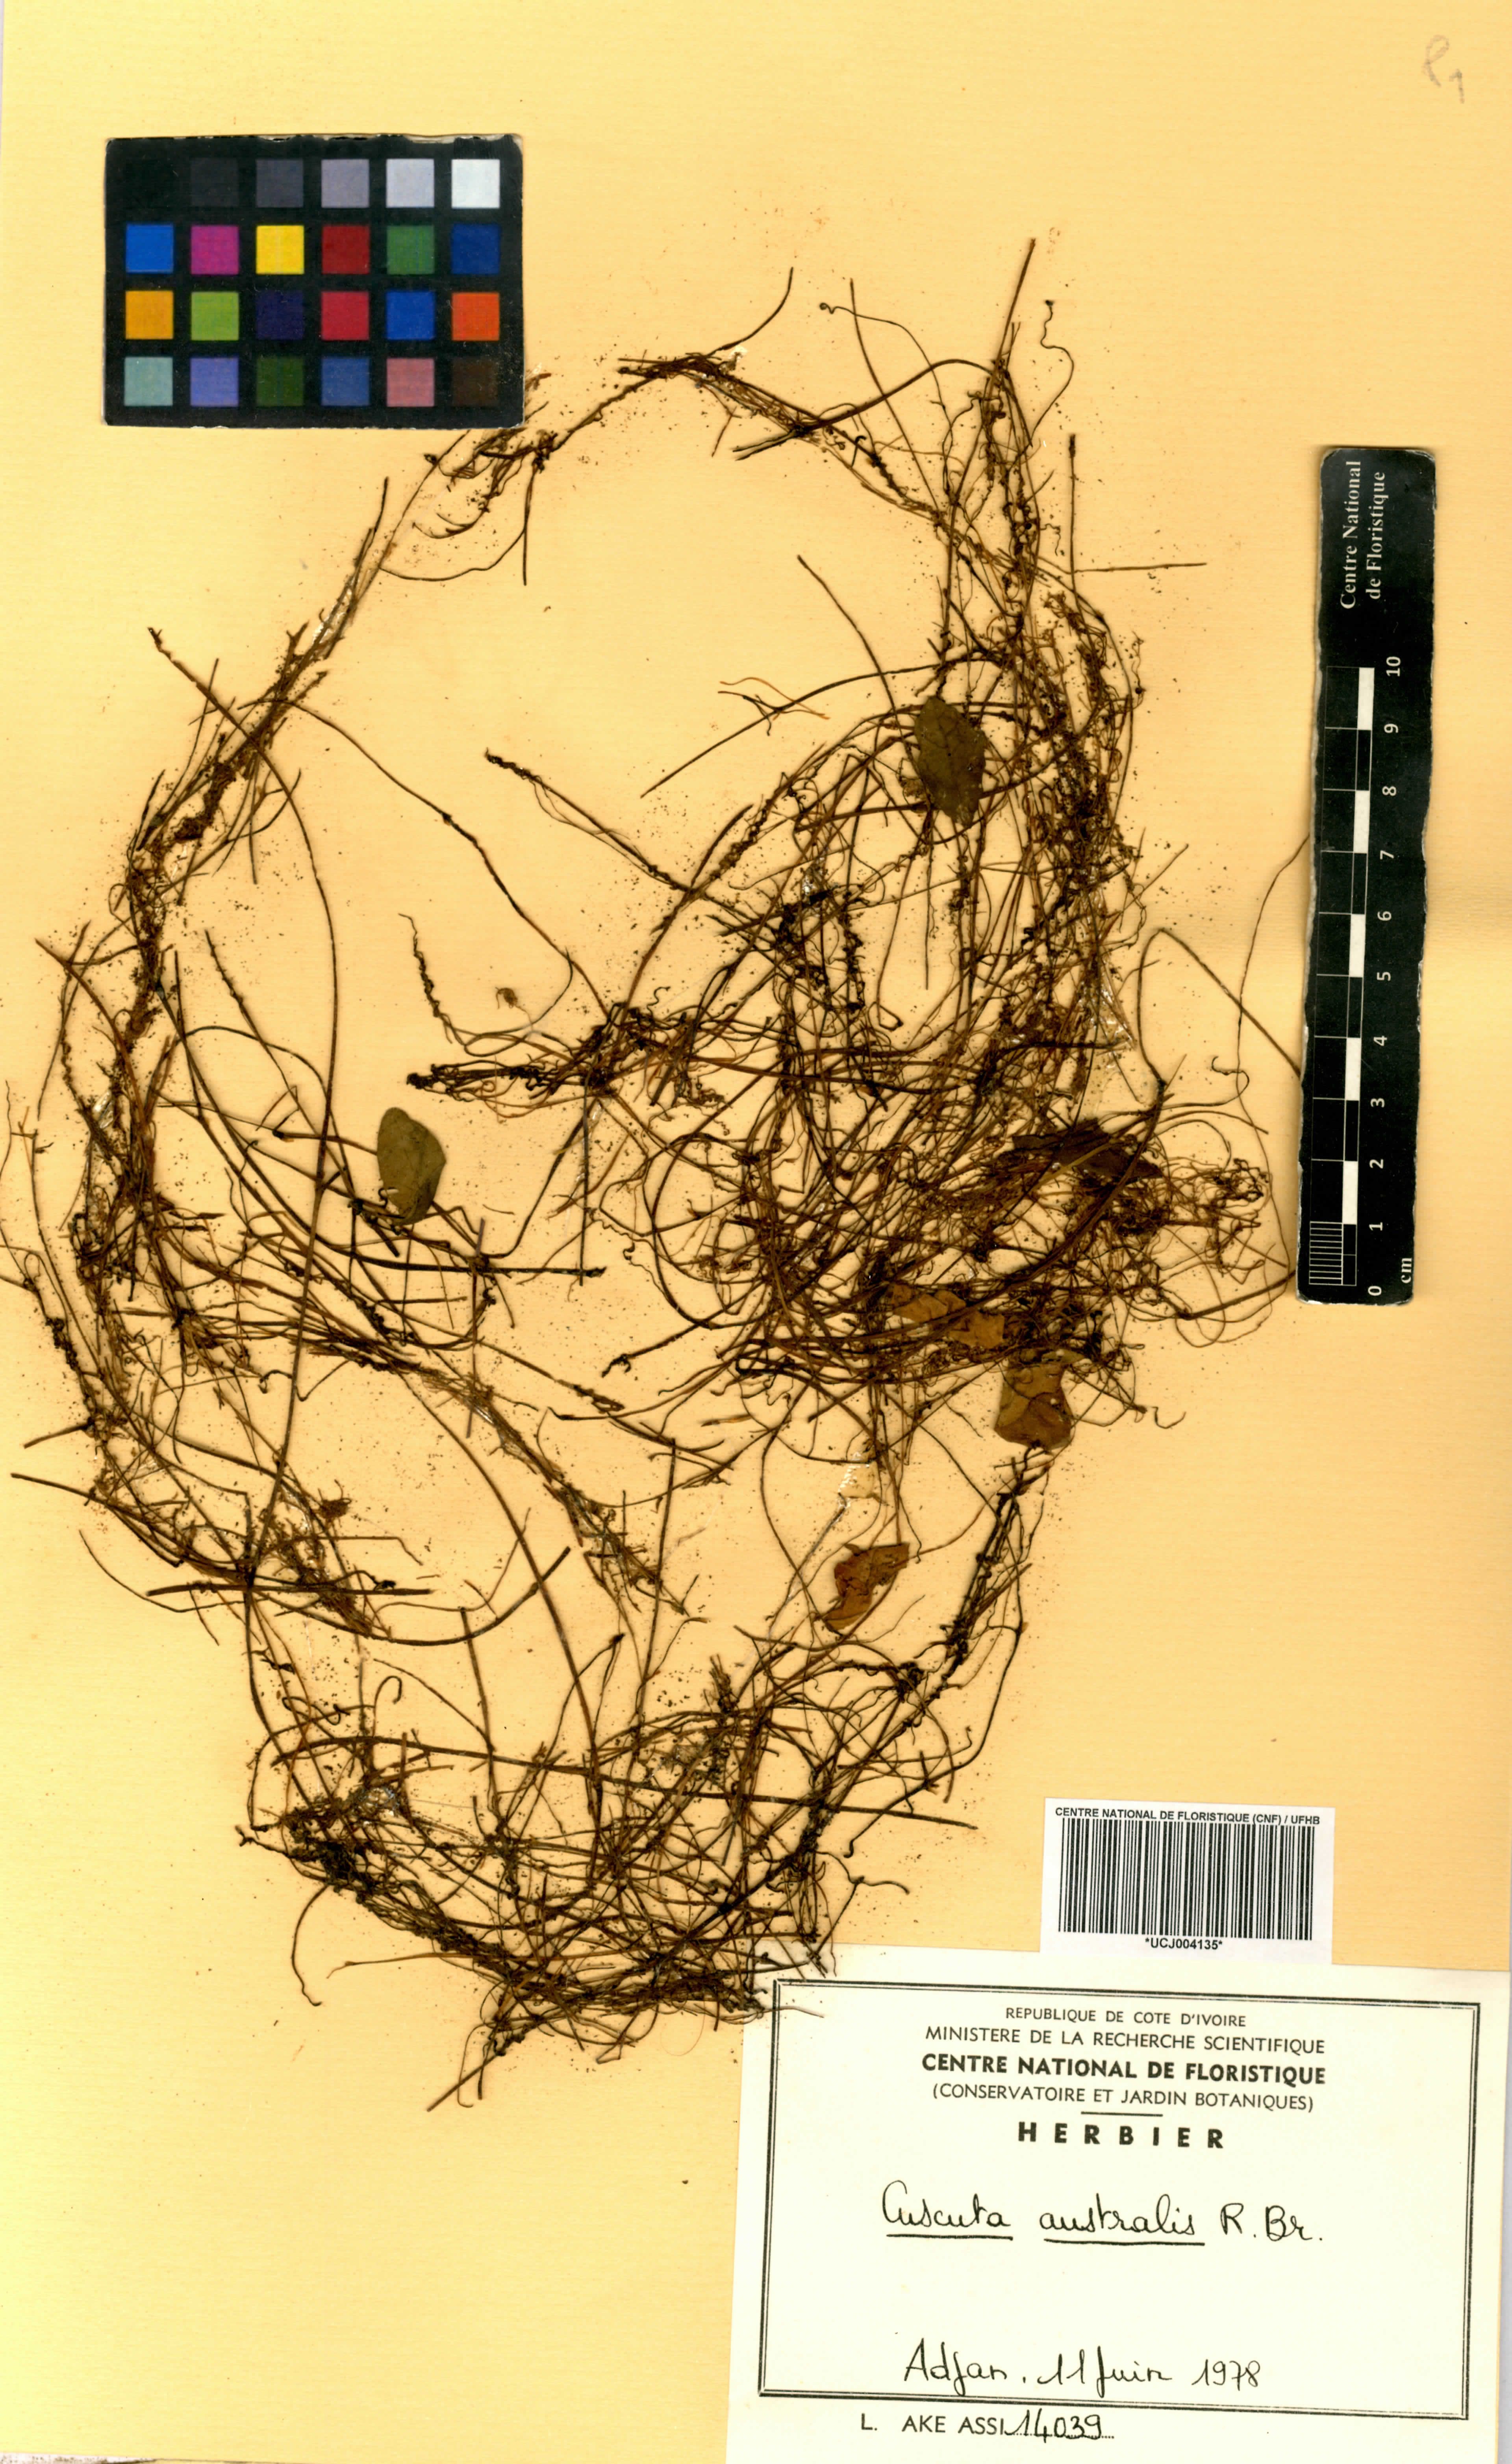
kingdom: Plantae
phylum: Tracheophyta
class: Magnoliopsida
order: Solanales
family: Convolvulaceae
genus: Cuscuta
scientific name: Cuscuta australis
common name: Australian dodder
